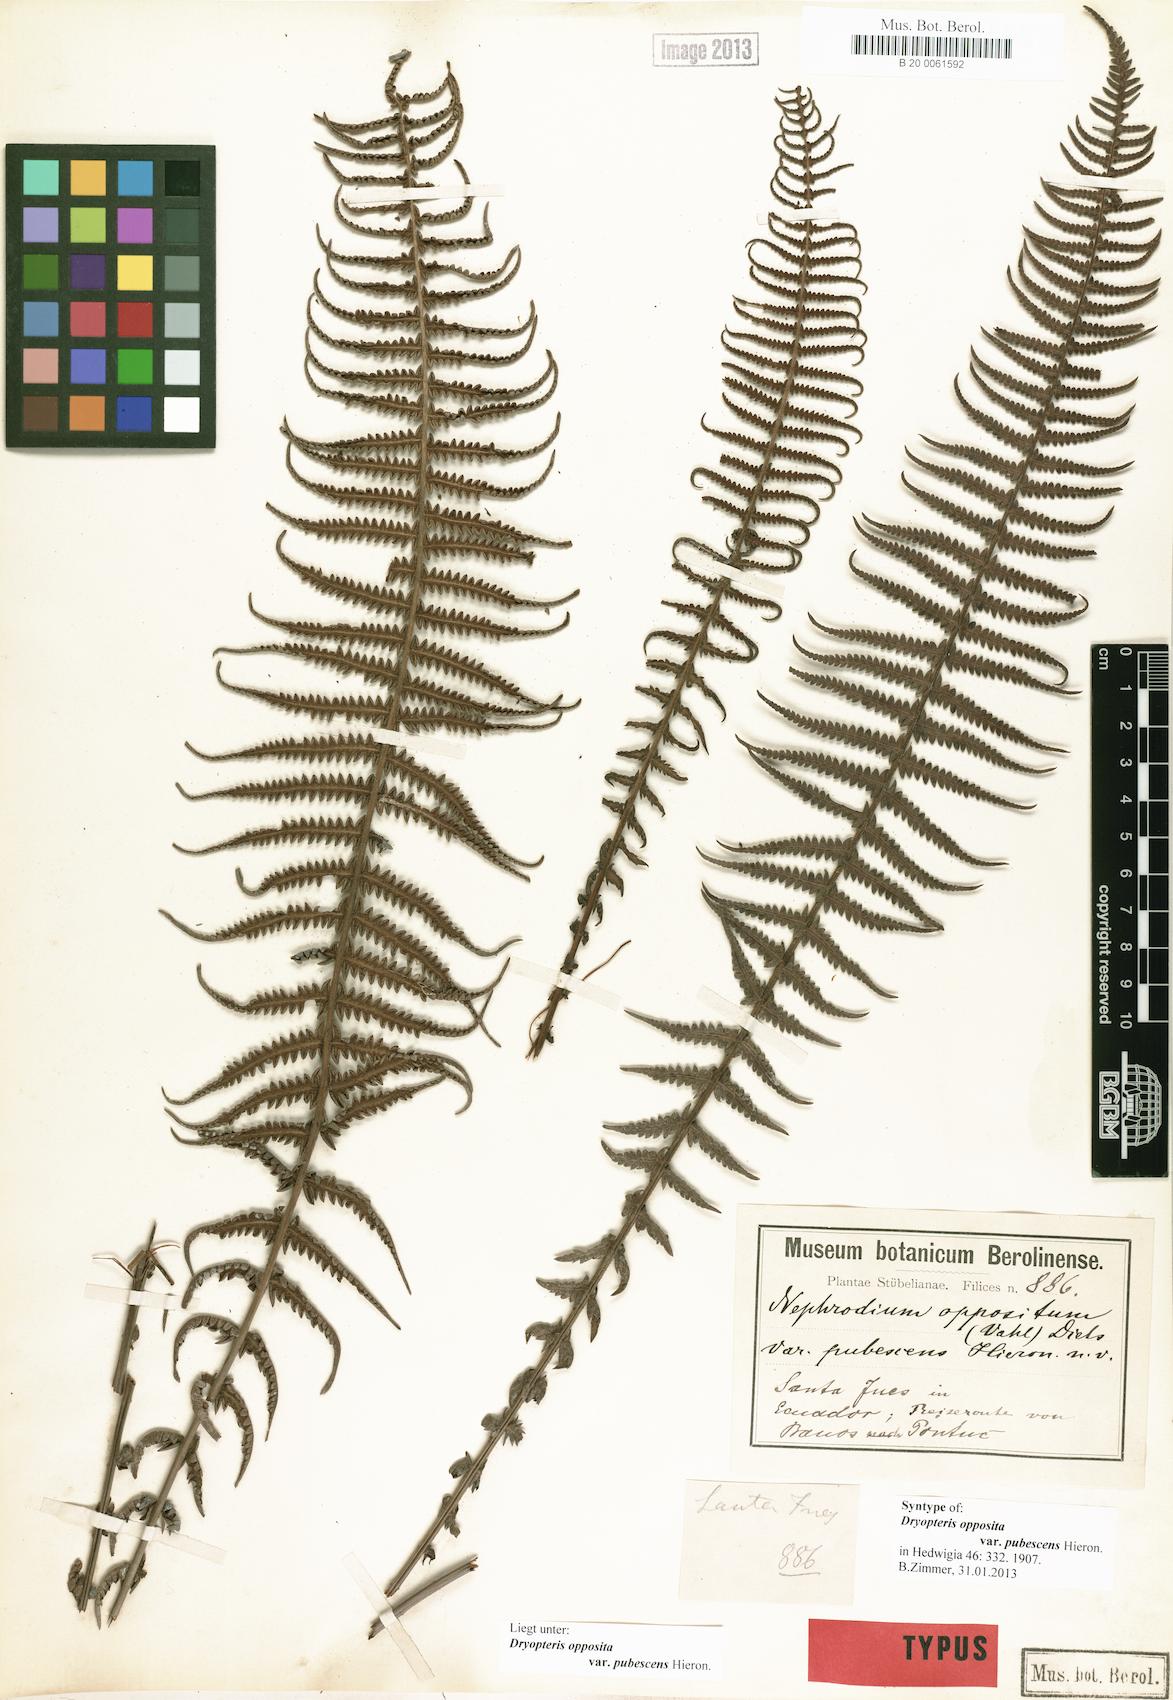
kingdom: Plantae
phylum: Tracheophyta
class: Polypodiopsida
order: Polypodiales
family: Thelypteridaceae
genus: Amauropelta
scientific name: Amauropelta opposita
